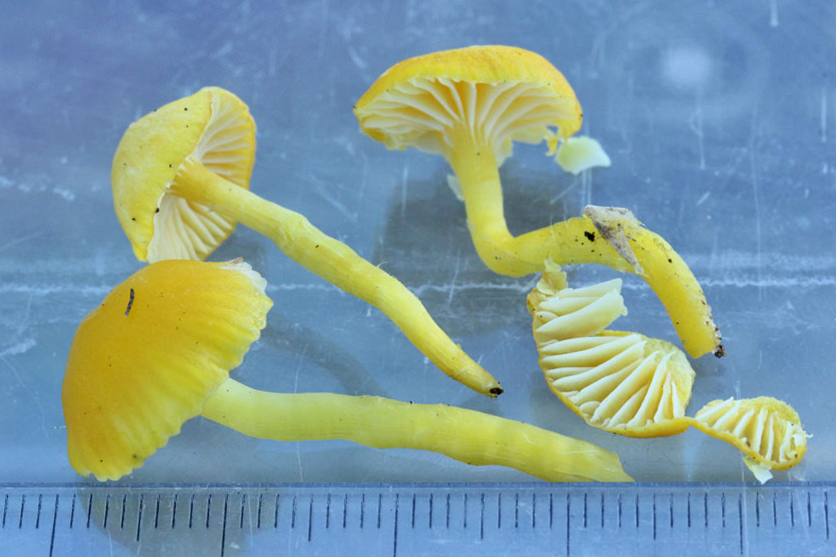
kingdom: Fungi
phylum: Basidiomycota
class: Agaricomycetes
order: Agaricales
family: Hygrophoraceae
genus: Hygrocybe
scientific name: Hygrocybe ceracea
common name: voksgul vokshat
